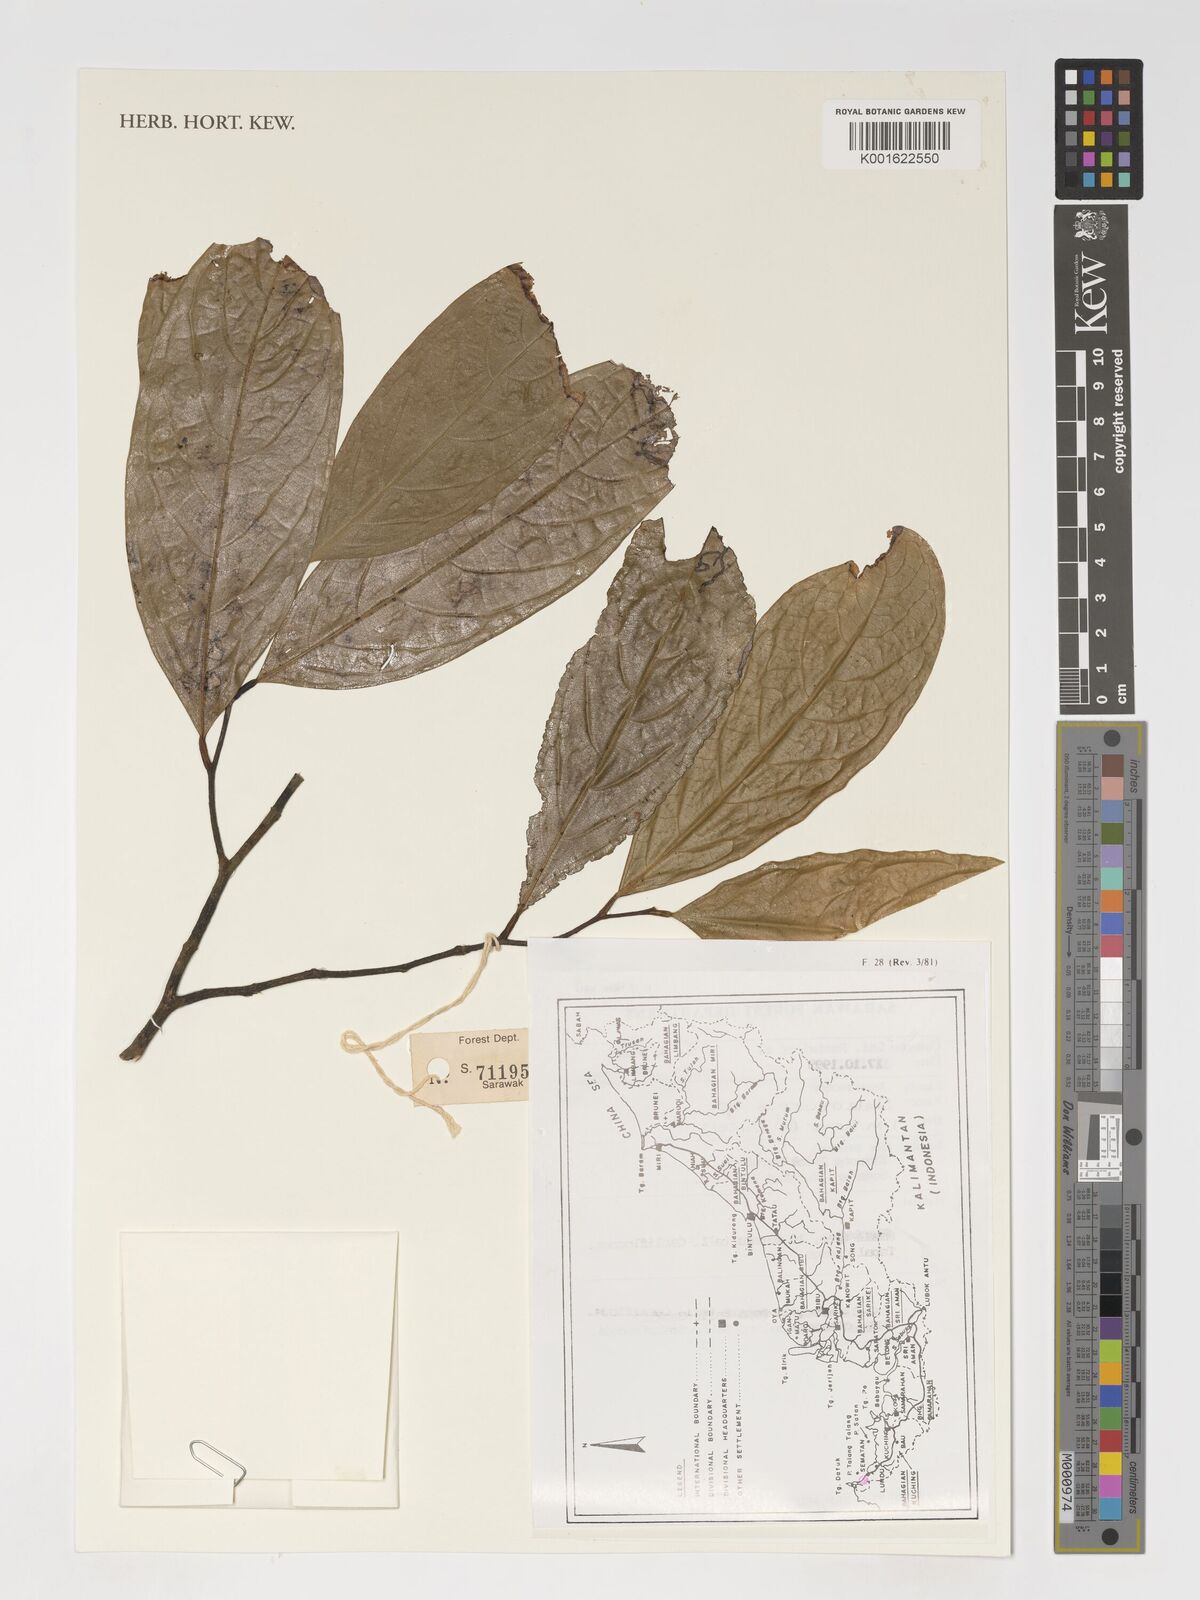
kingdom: Plantae
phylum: Tracheophyta
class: Magnoliopsida
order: Magnoliales
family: Annonaceae
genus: Stelechocarpus
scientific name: Stelechocarpus
